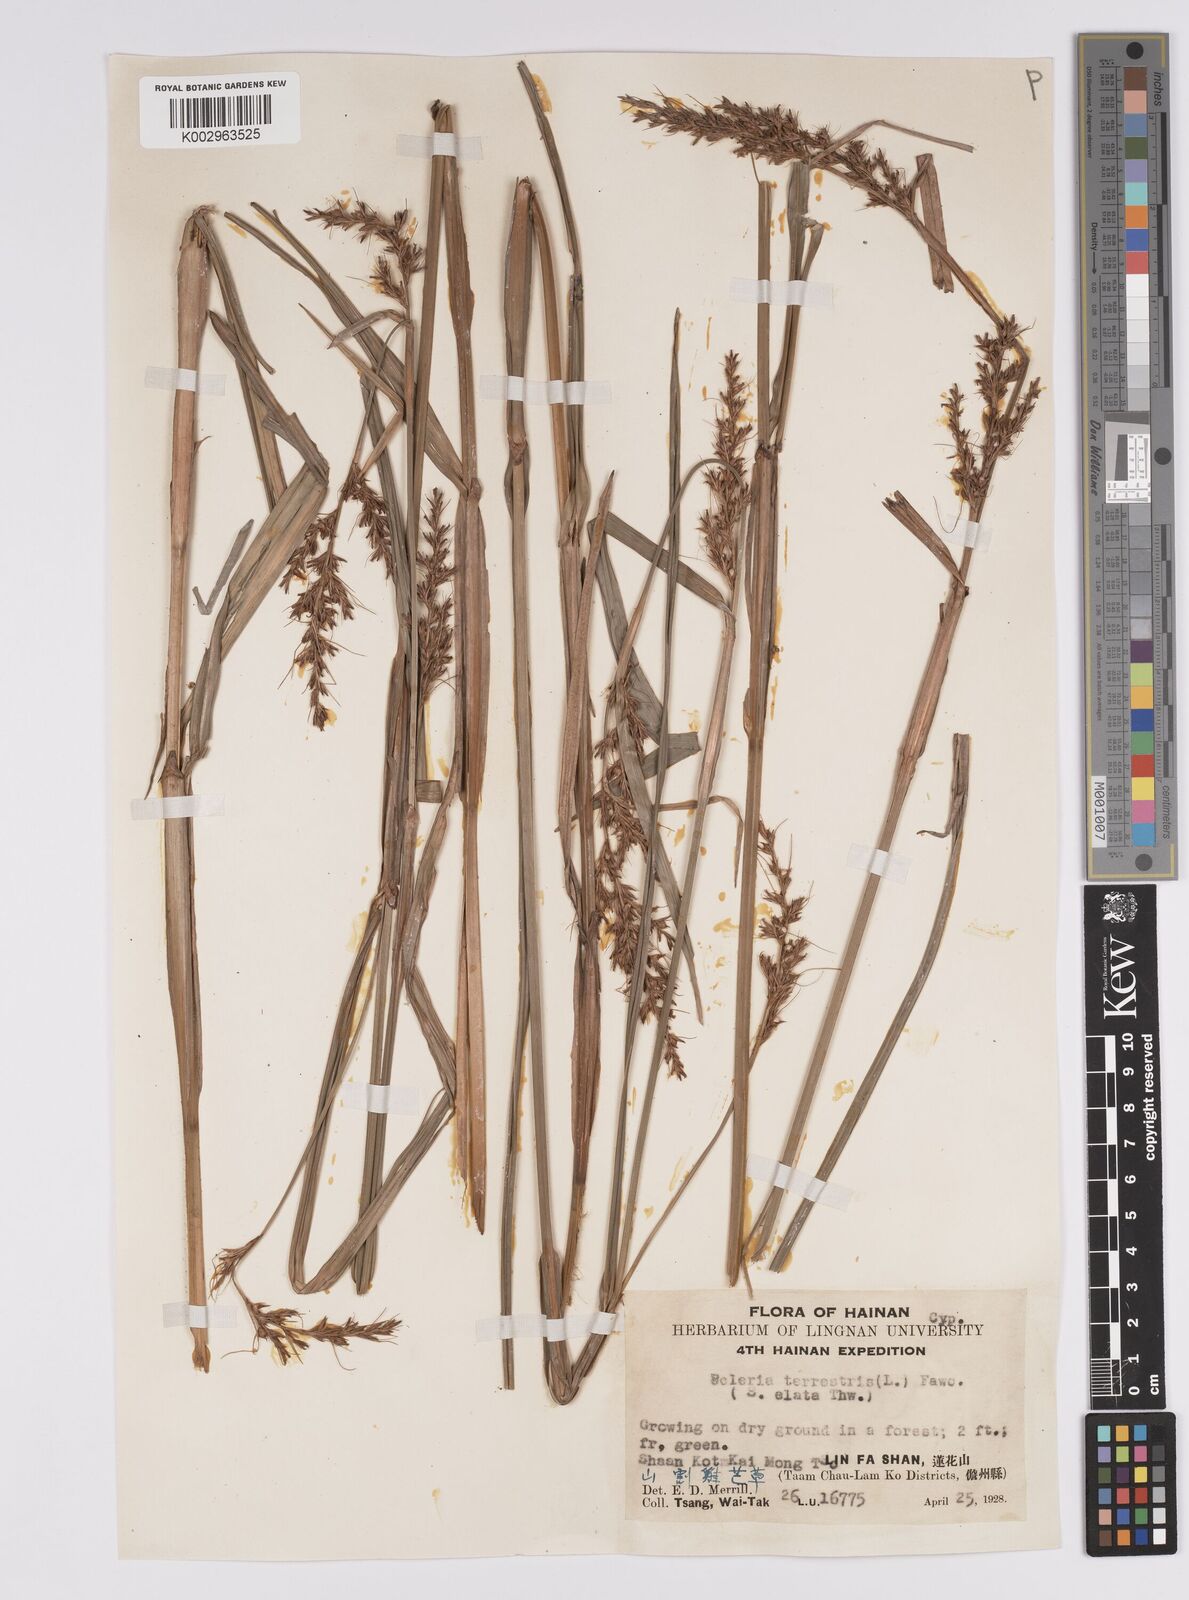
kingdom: Plantae
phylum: Tracheophyta
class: Liliopsida
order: Poales
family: Cyperaceae
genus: Scleria
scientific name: Scleria terrestris
